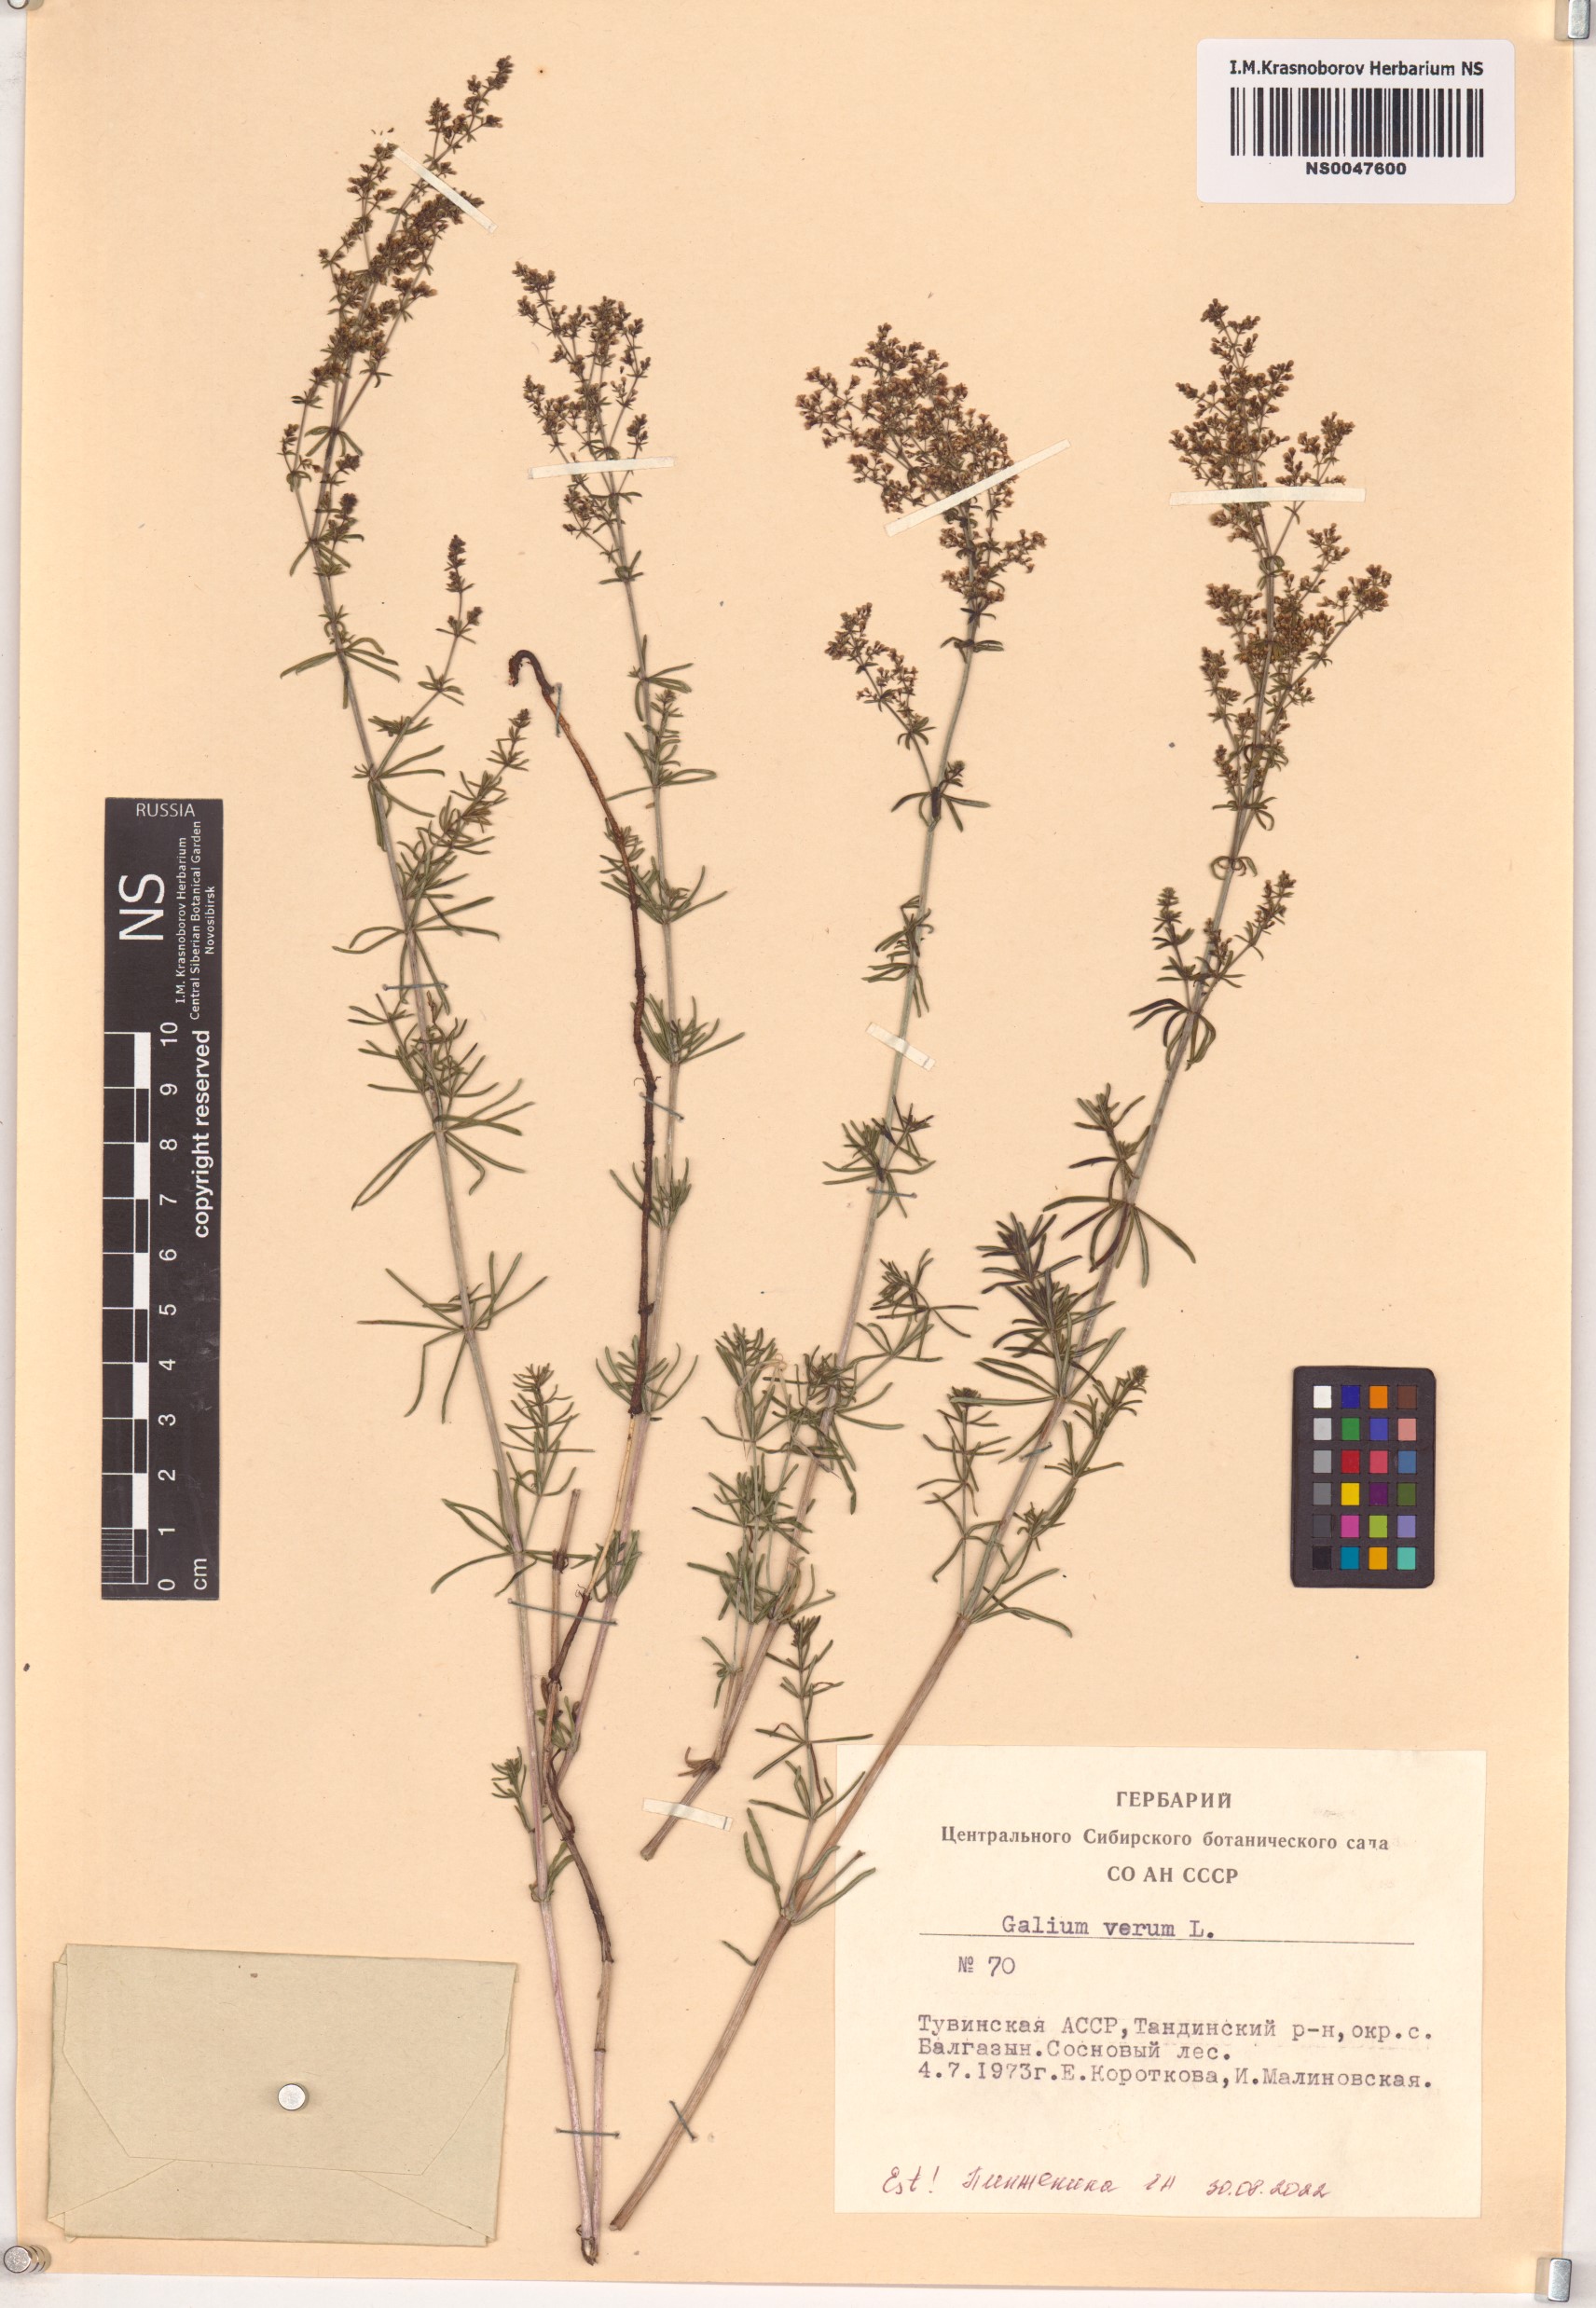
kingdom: Plantae
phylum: Tracheophyta
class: Magnoliopsida
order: Gentianales
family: Rubiaceae
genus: Galium
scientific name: Galium verum
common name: Lady's bedstraw
